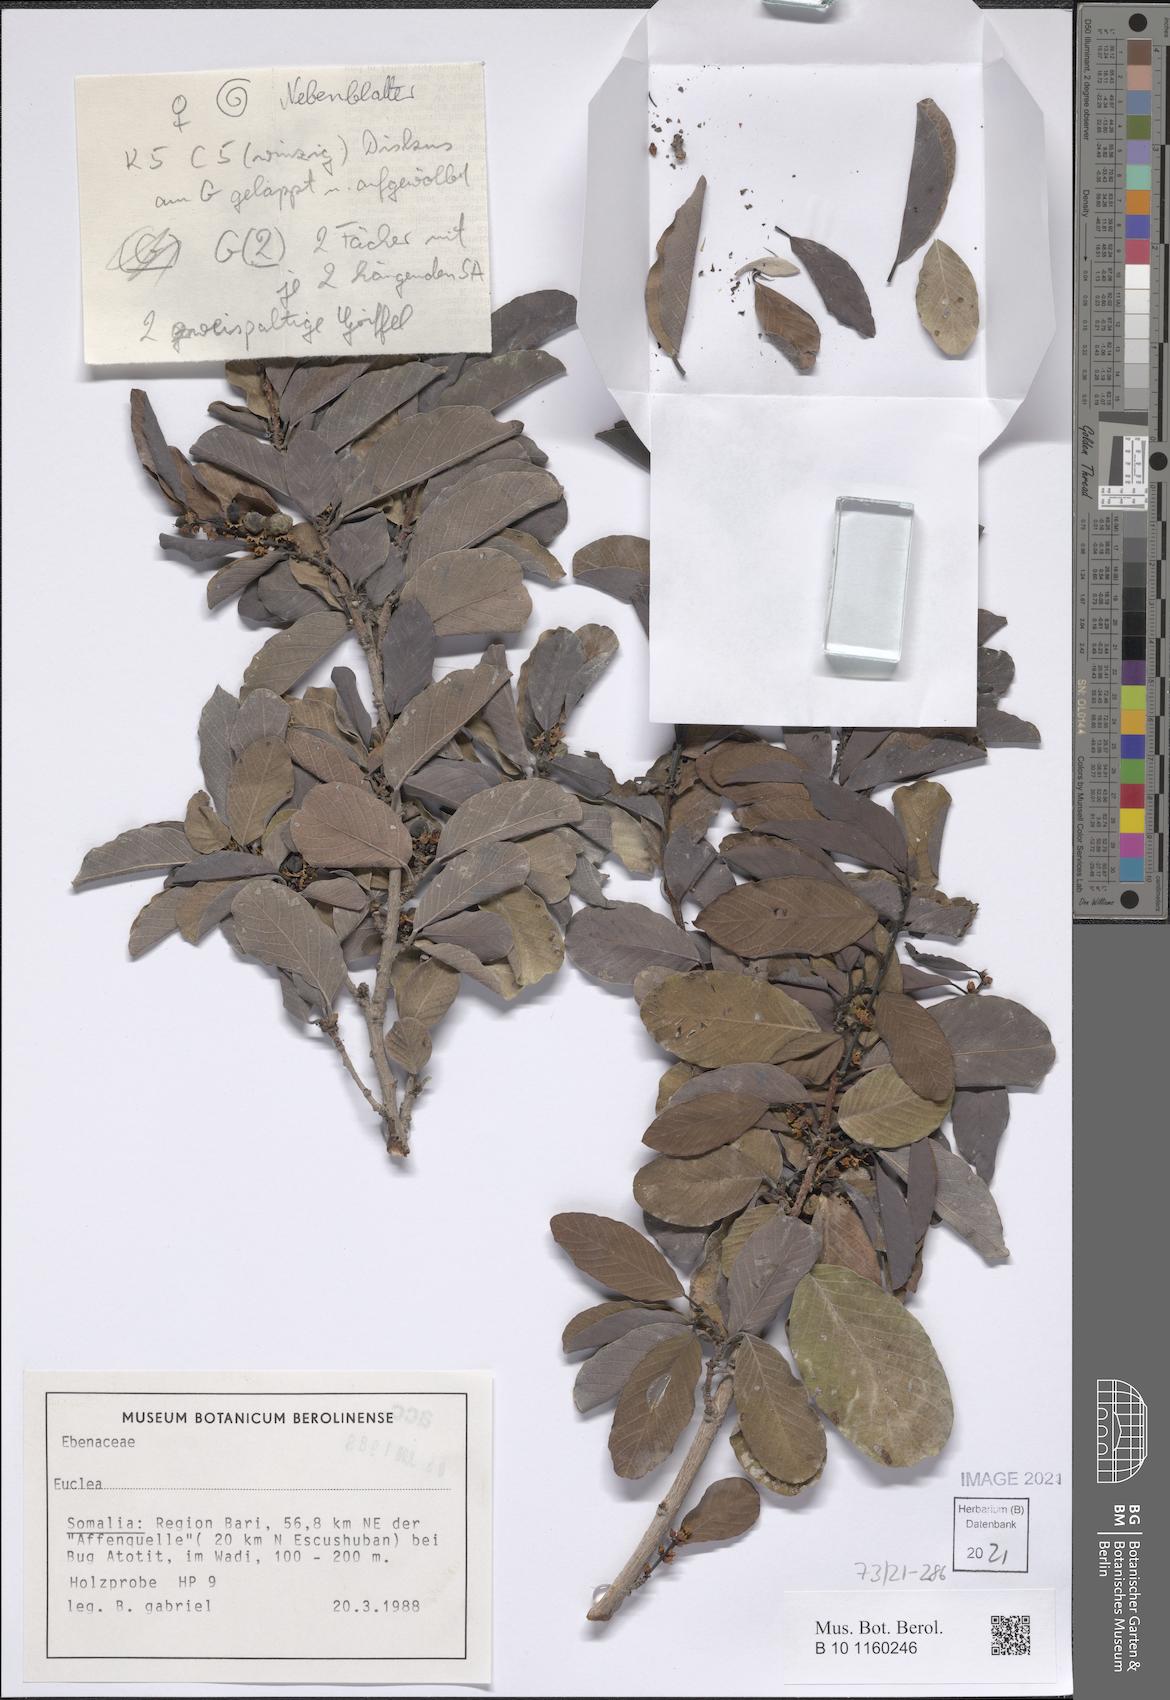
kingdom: Plantae
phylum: Tracheophyta
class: Magnoliopsida
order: Malpighiales
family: Phyllanthaceae
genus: Bridelia
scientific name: Bridelia somalensis
